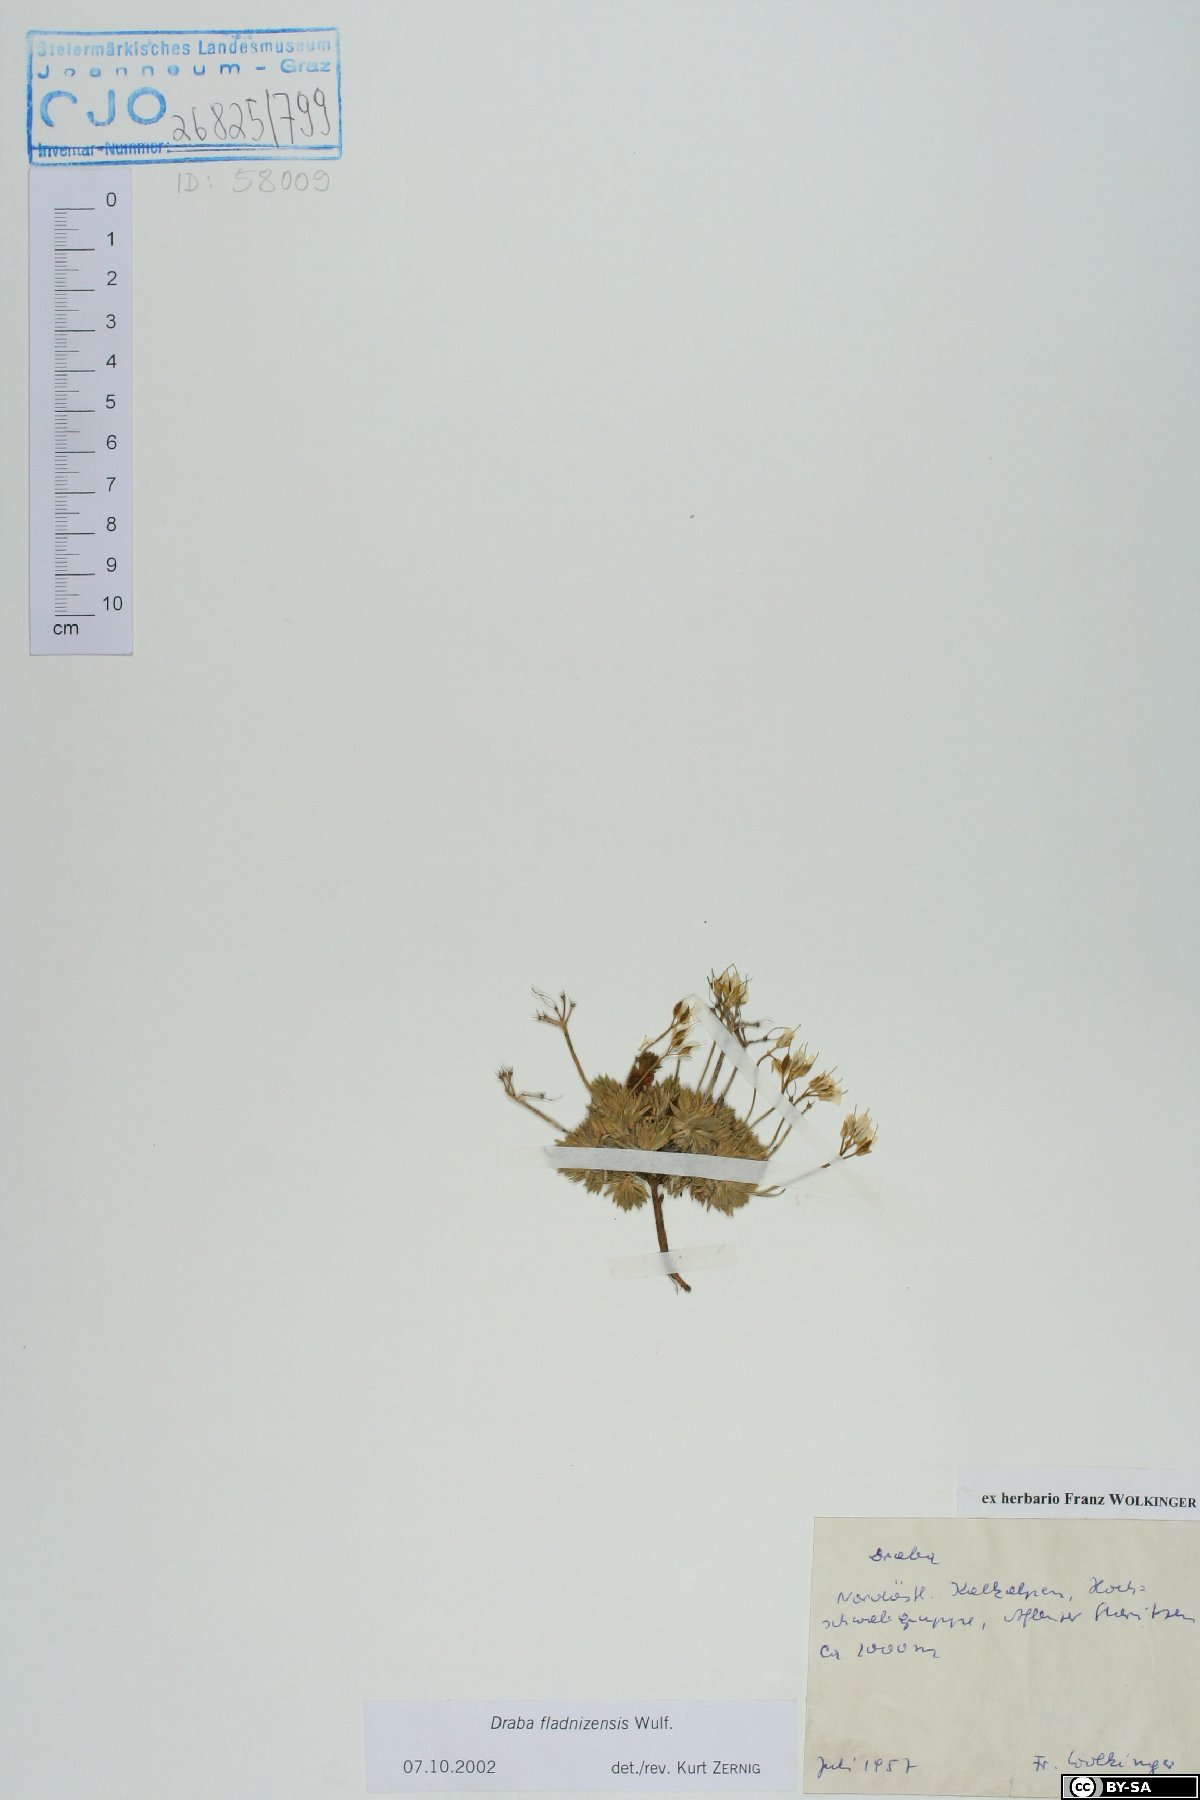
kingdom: Plantae
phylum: Tracheophyta
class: Magnoliopsida
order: Brassicales
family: Brassicaceae
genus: Draba
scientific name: Draba aizoides
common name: Yellow whitlowgrass
